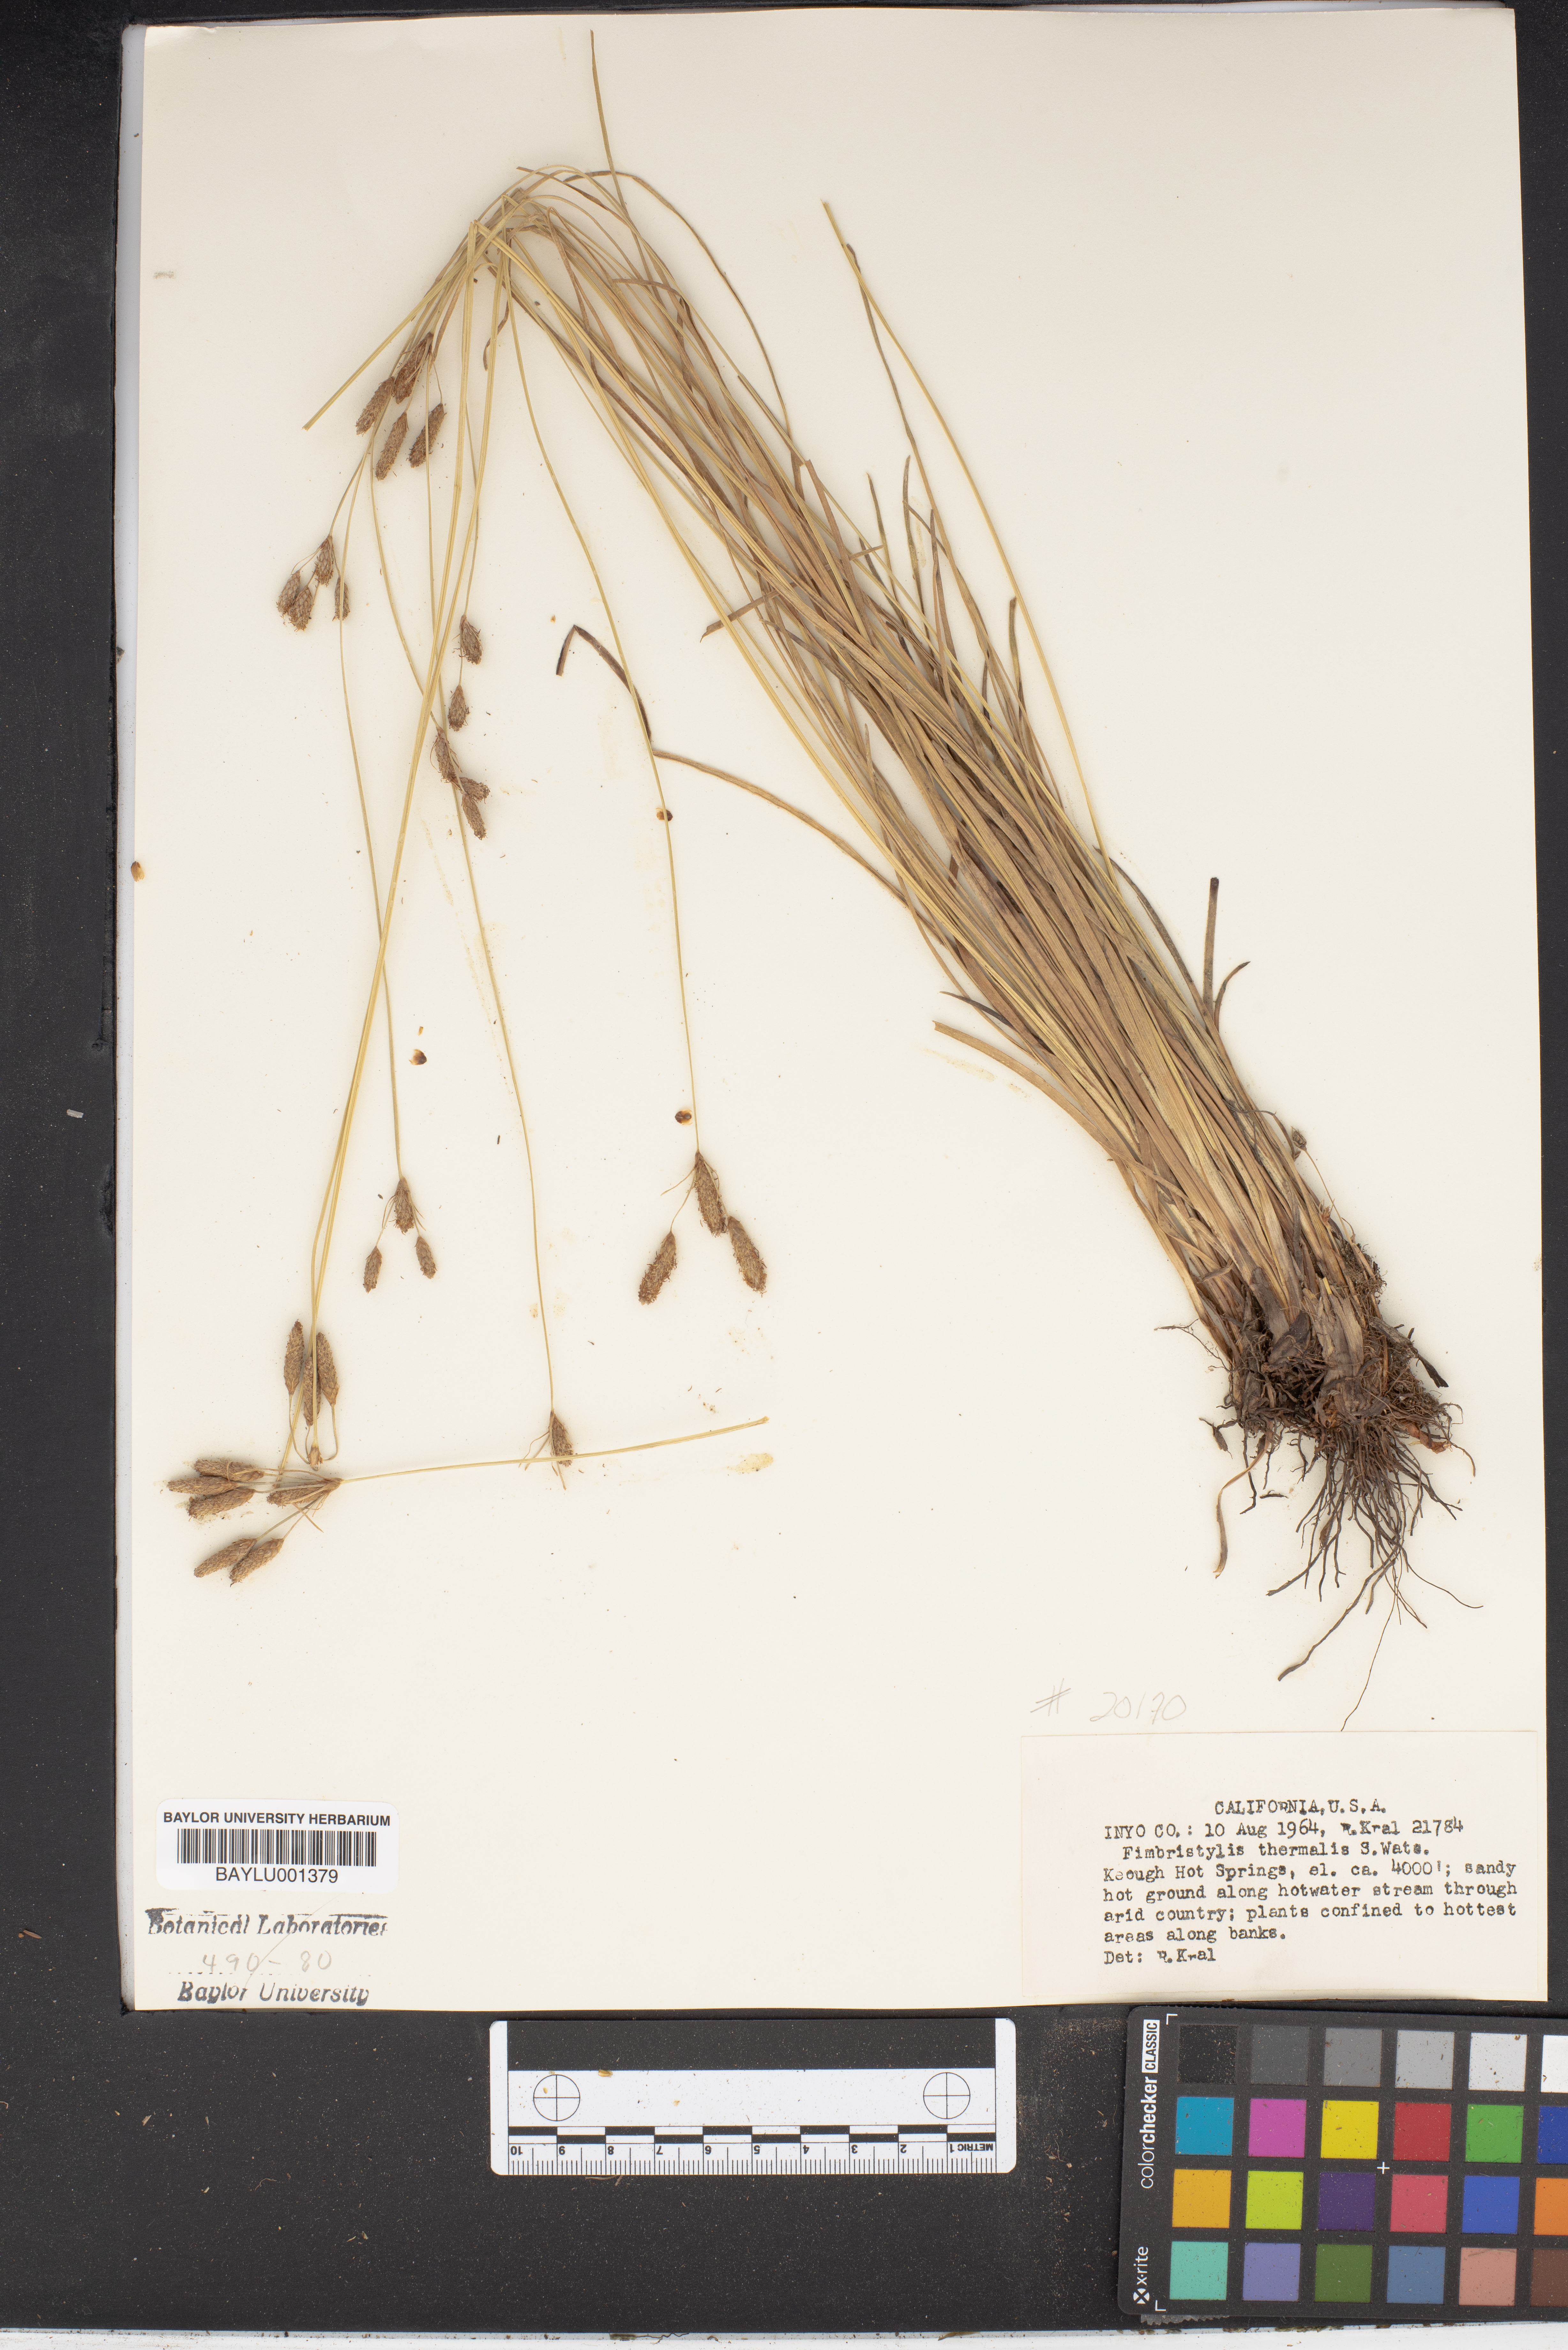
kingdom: Plantae
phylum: Tracheophyta
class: Liliopsida
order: Poales
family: Cyperaceae
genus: Fimbristylis
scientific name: Fimbristylis thermalis
